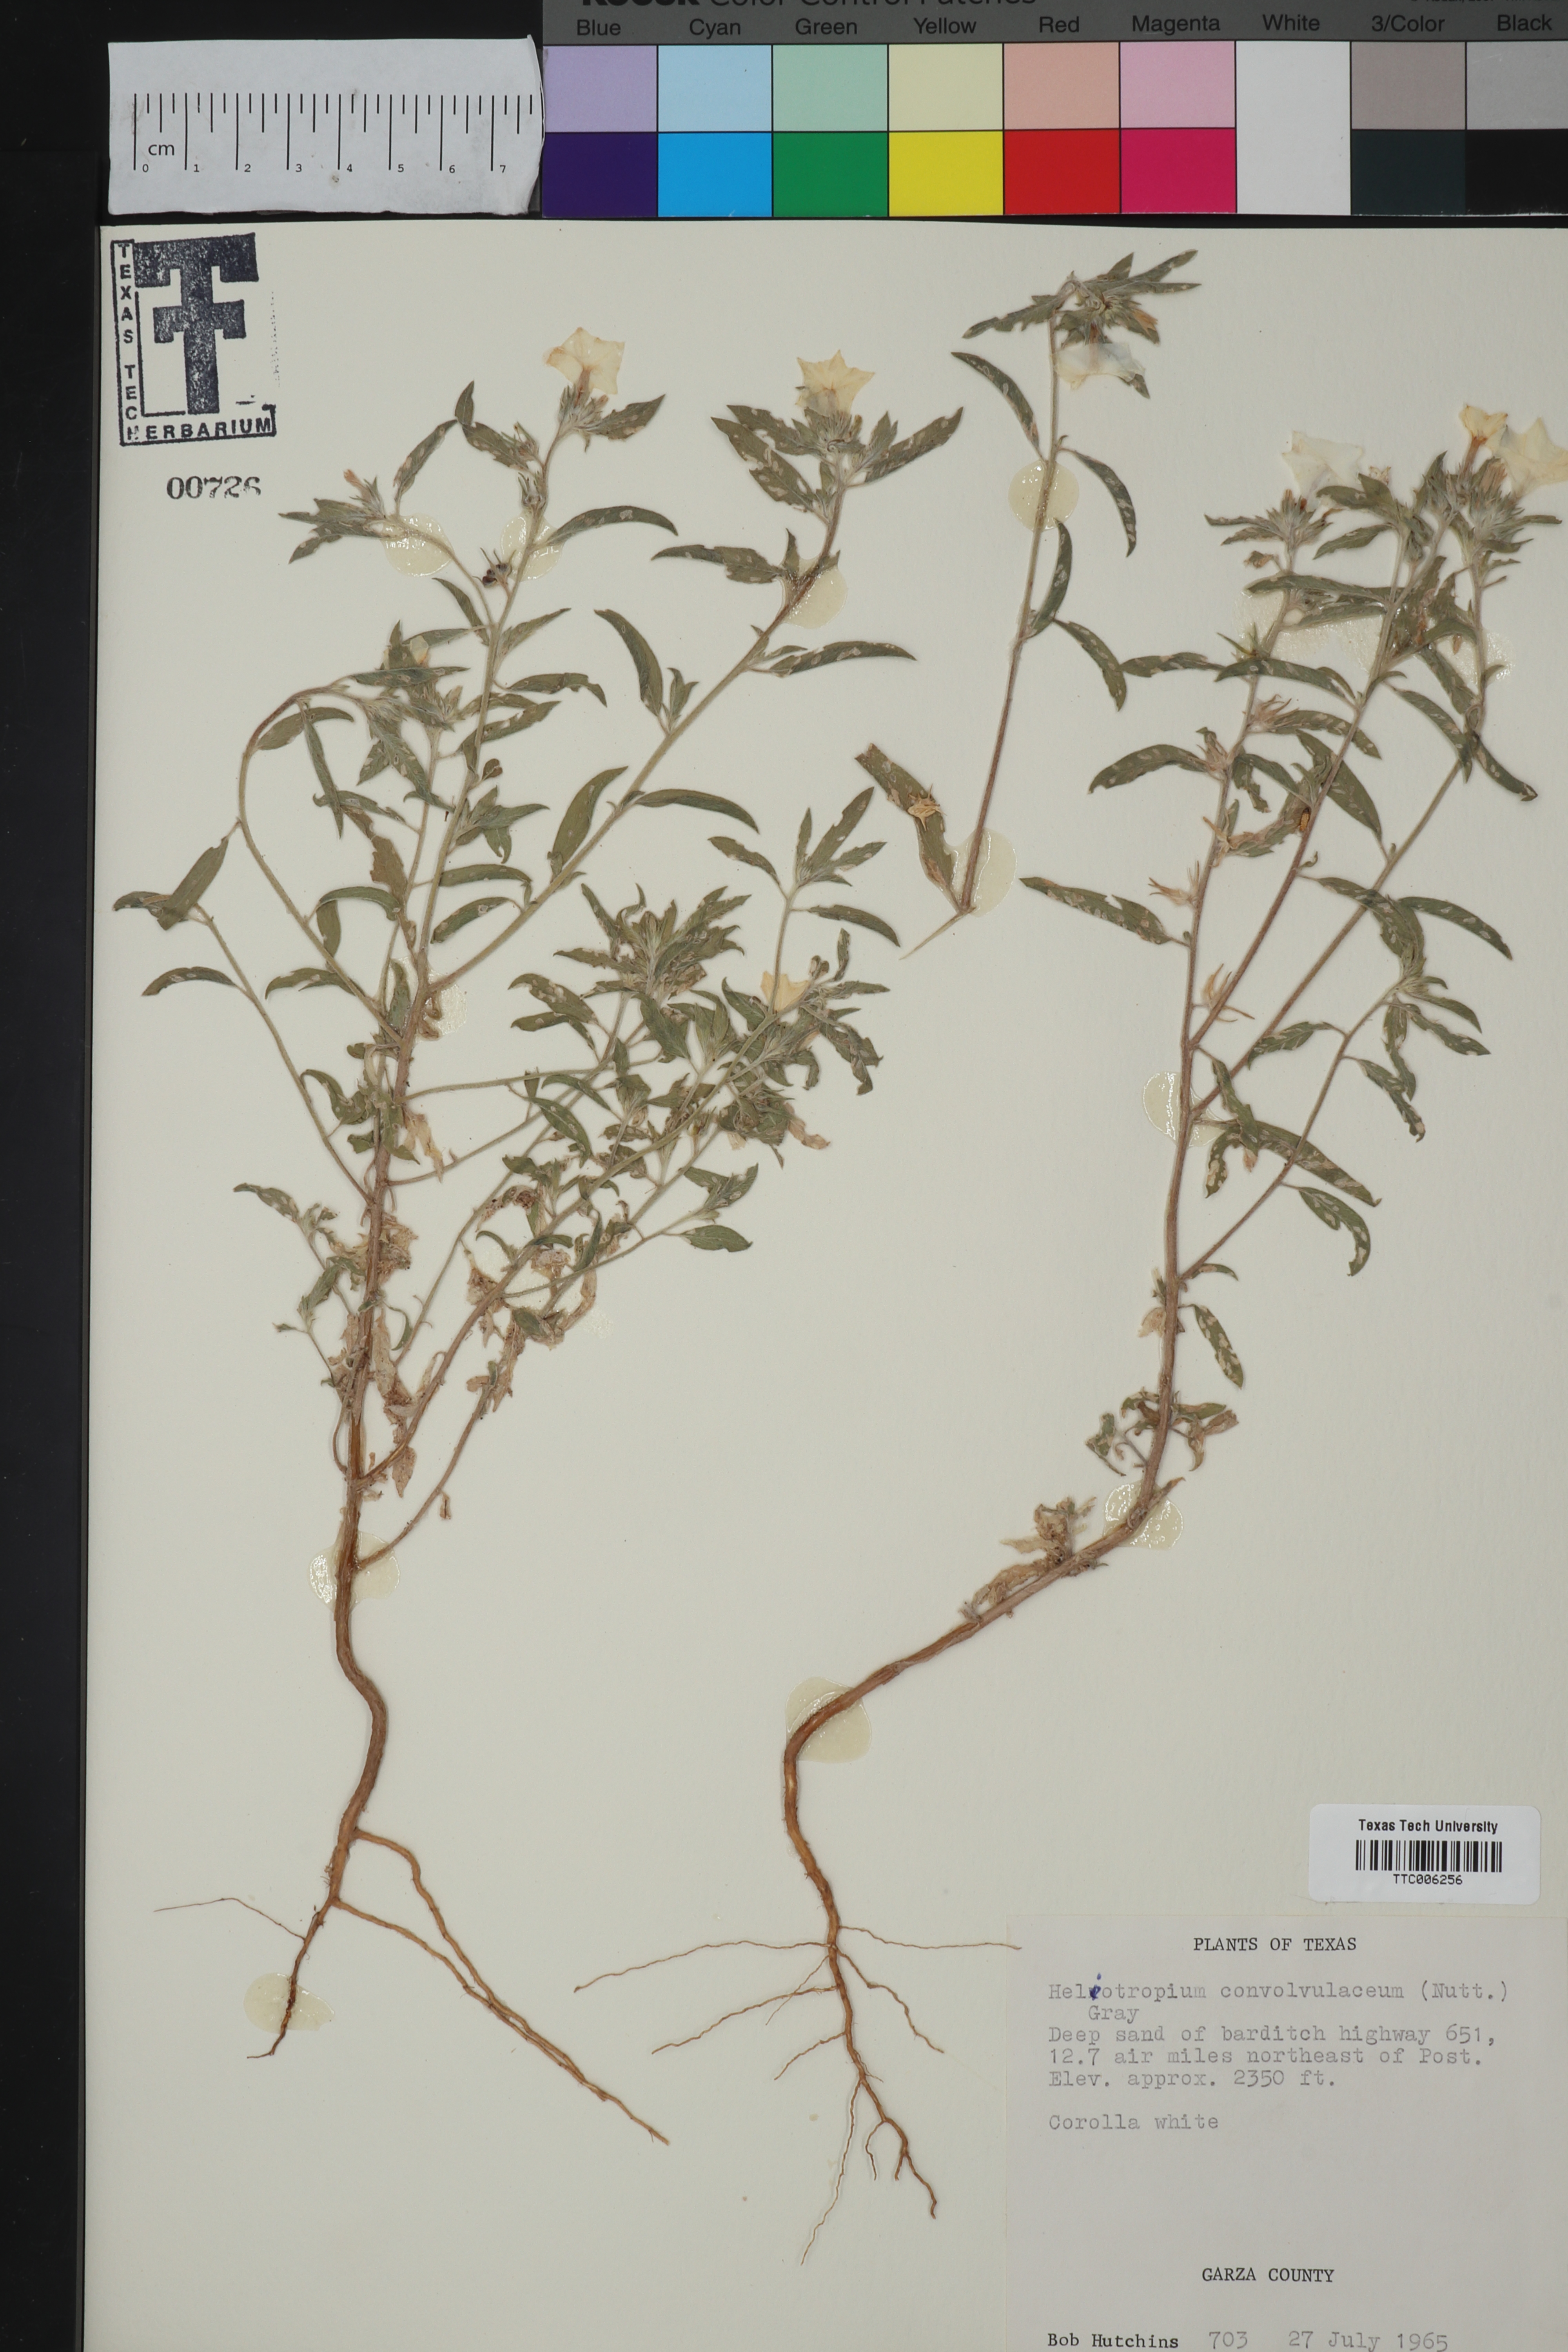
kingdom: Plantae
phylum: Tracheophyta
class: Magnoliopsida
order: Boraginales
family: Heliotropiaceae
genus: Euploca
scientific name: Euploca convolvulacea
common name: Bindweed heliotrope
